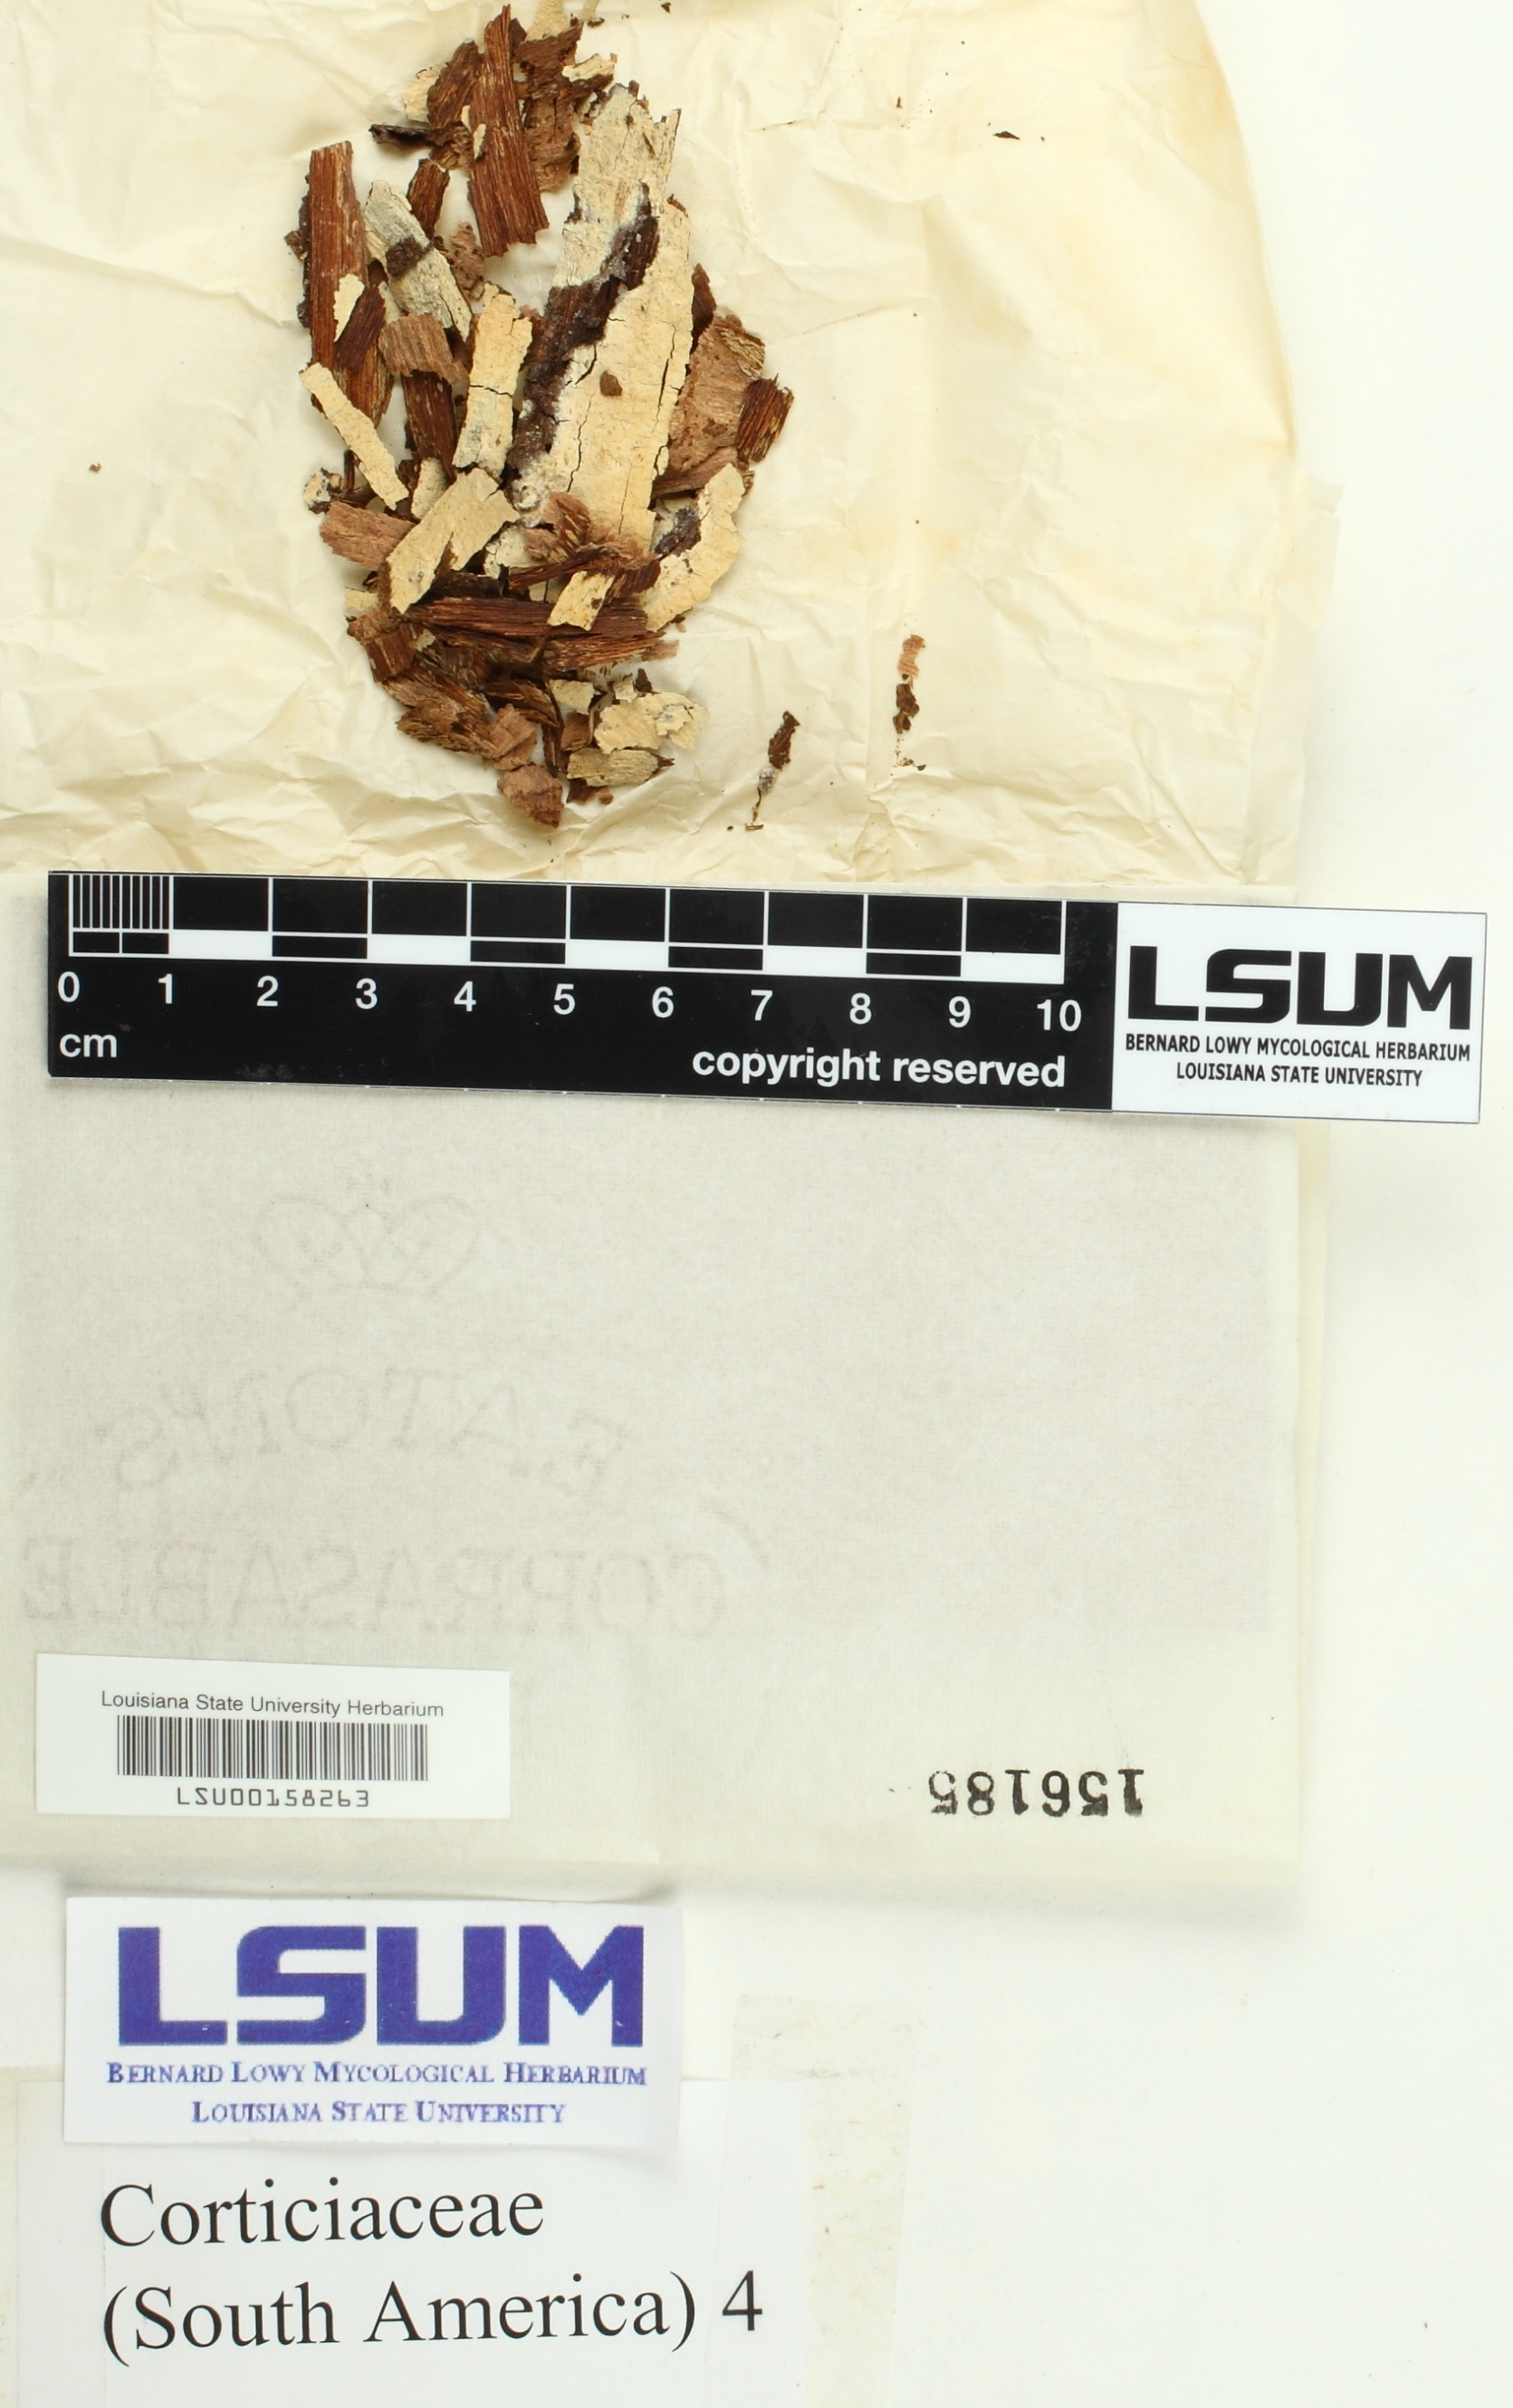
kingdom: Fungi
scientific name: Fungi
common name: Fungi
